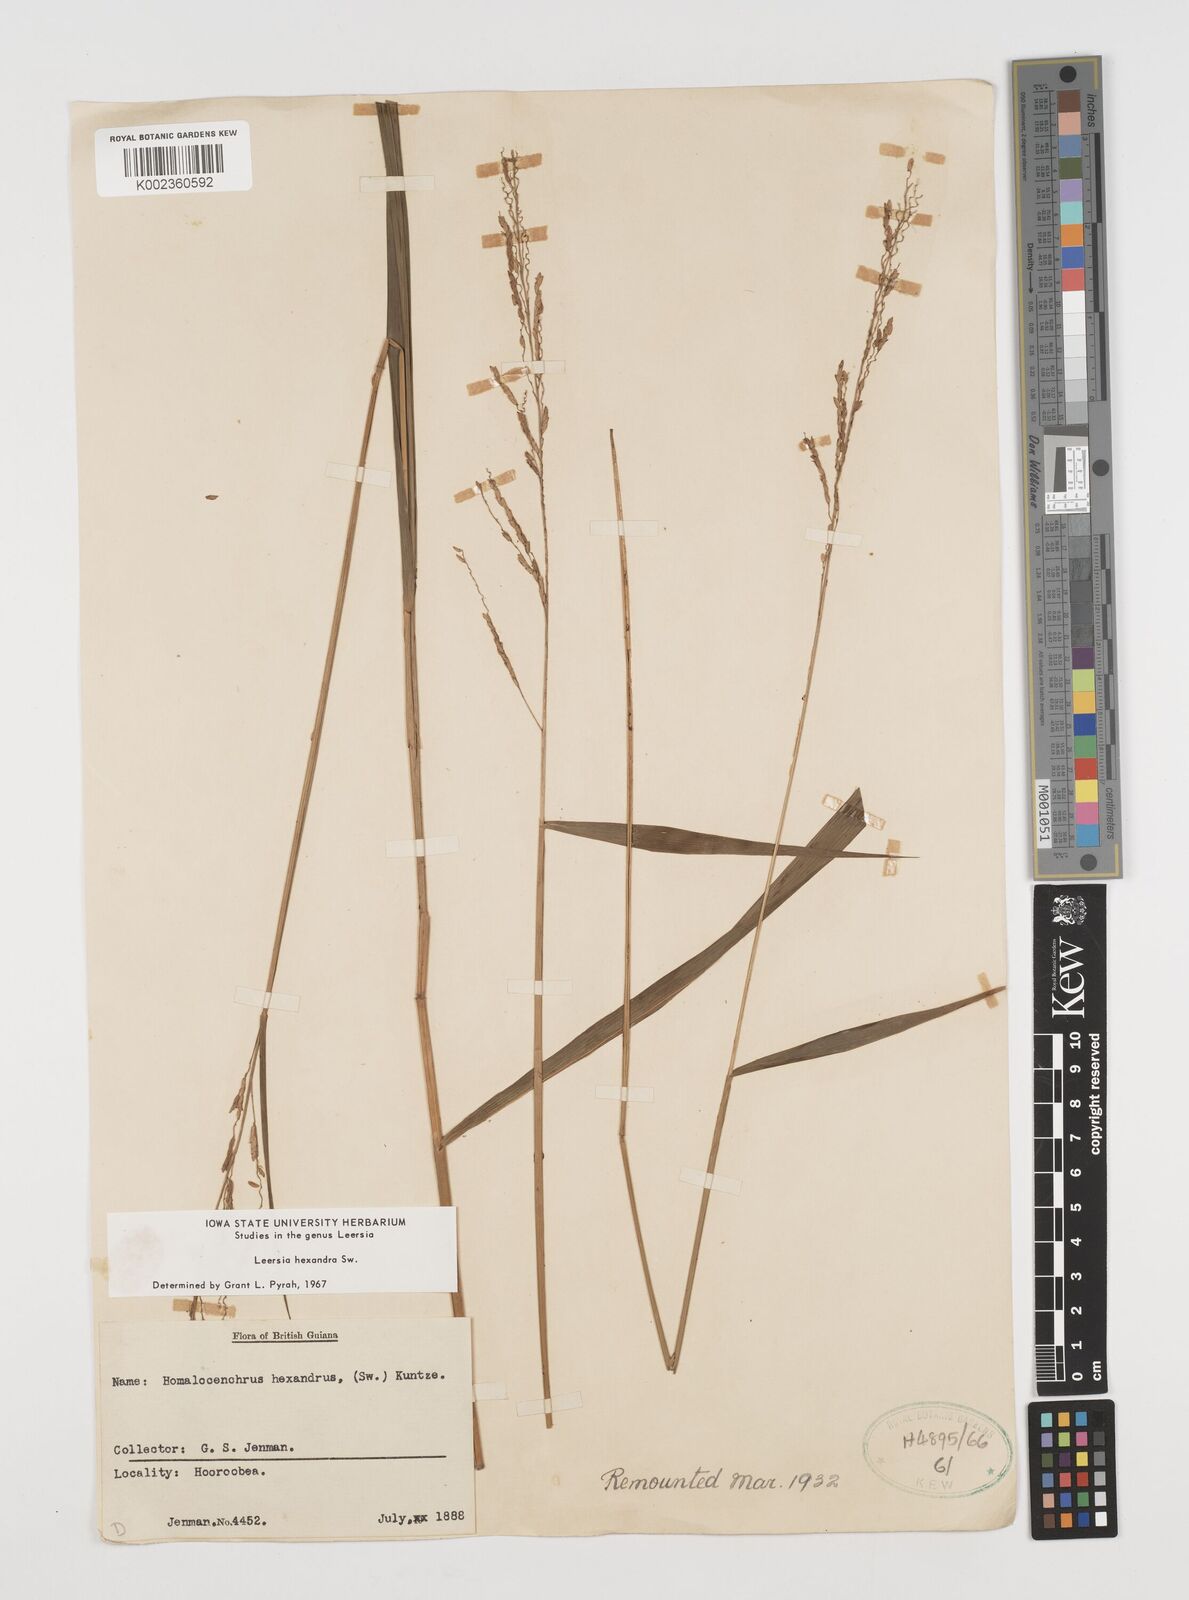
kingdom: Plantae
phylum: Tracheophyta
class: Liliopsida
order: Poales
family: Poaceae
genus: Leersia
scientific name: Leersia hexandra
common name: Southern cut grass
